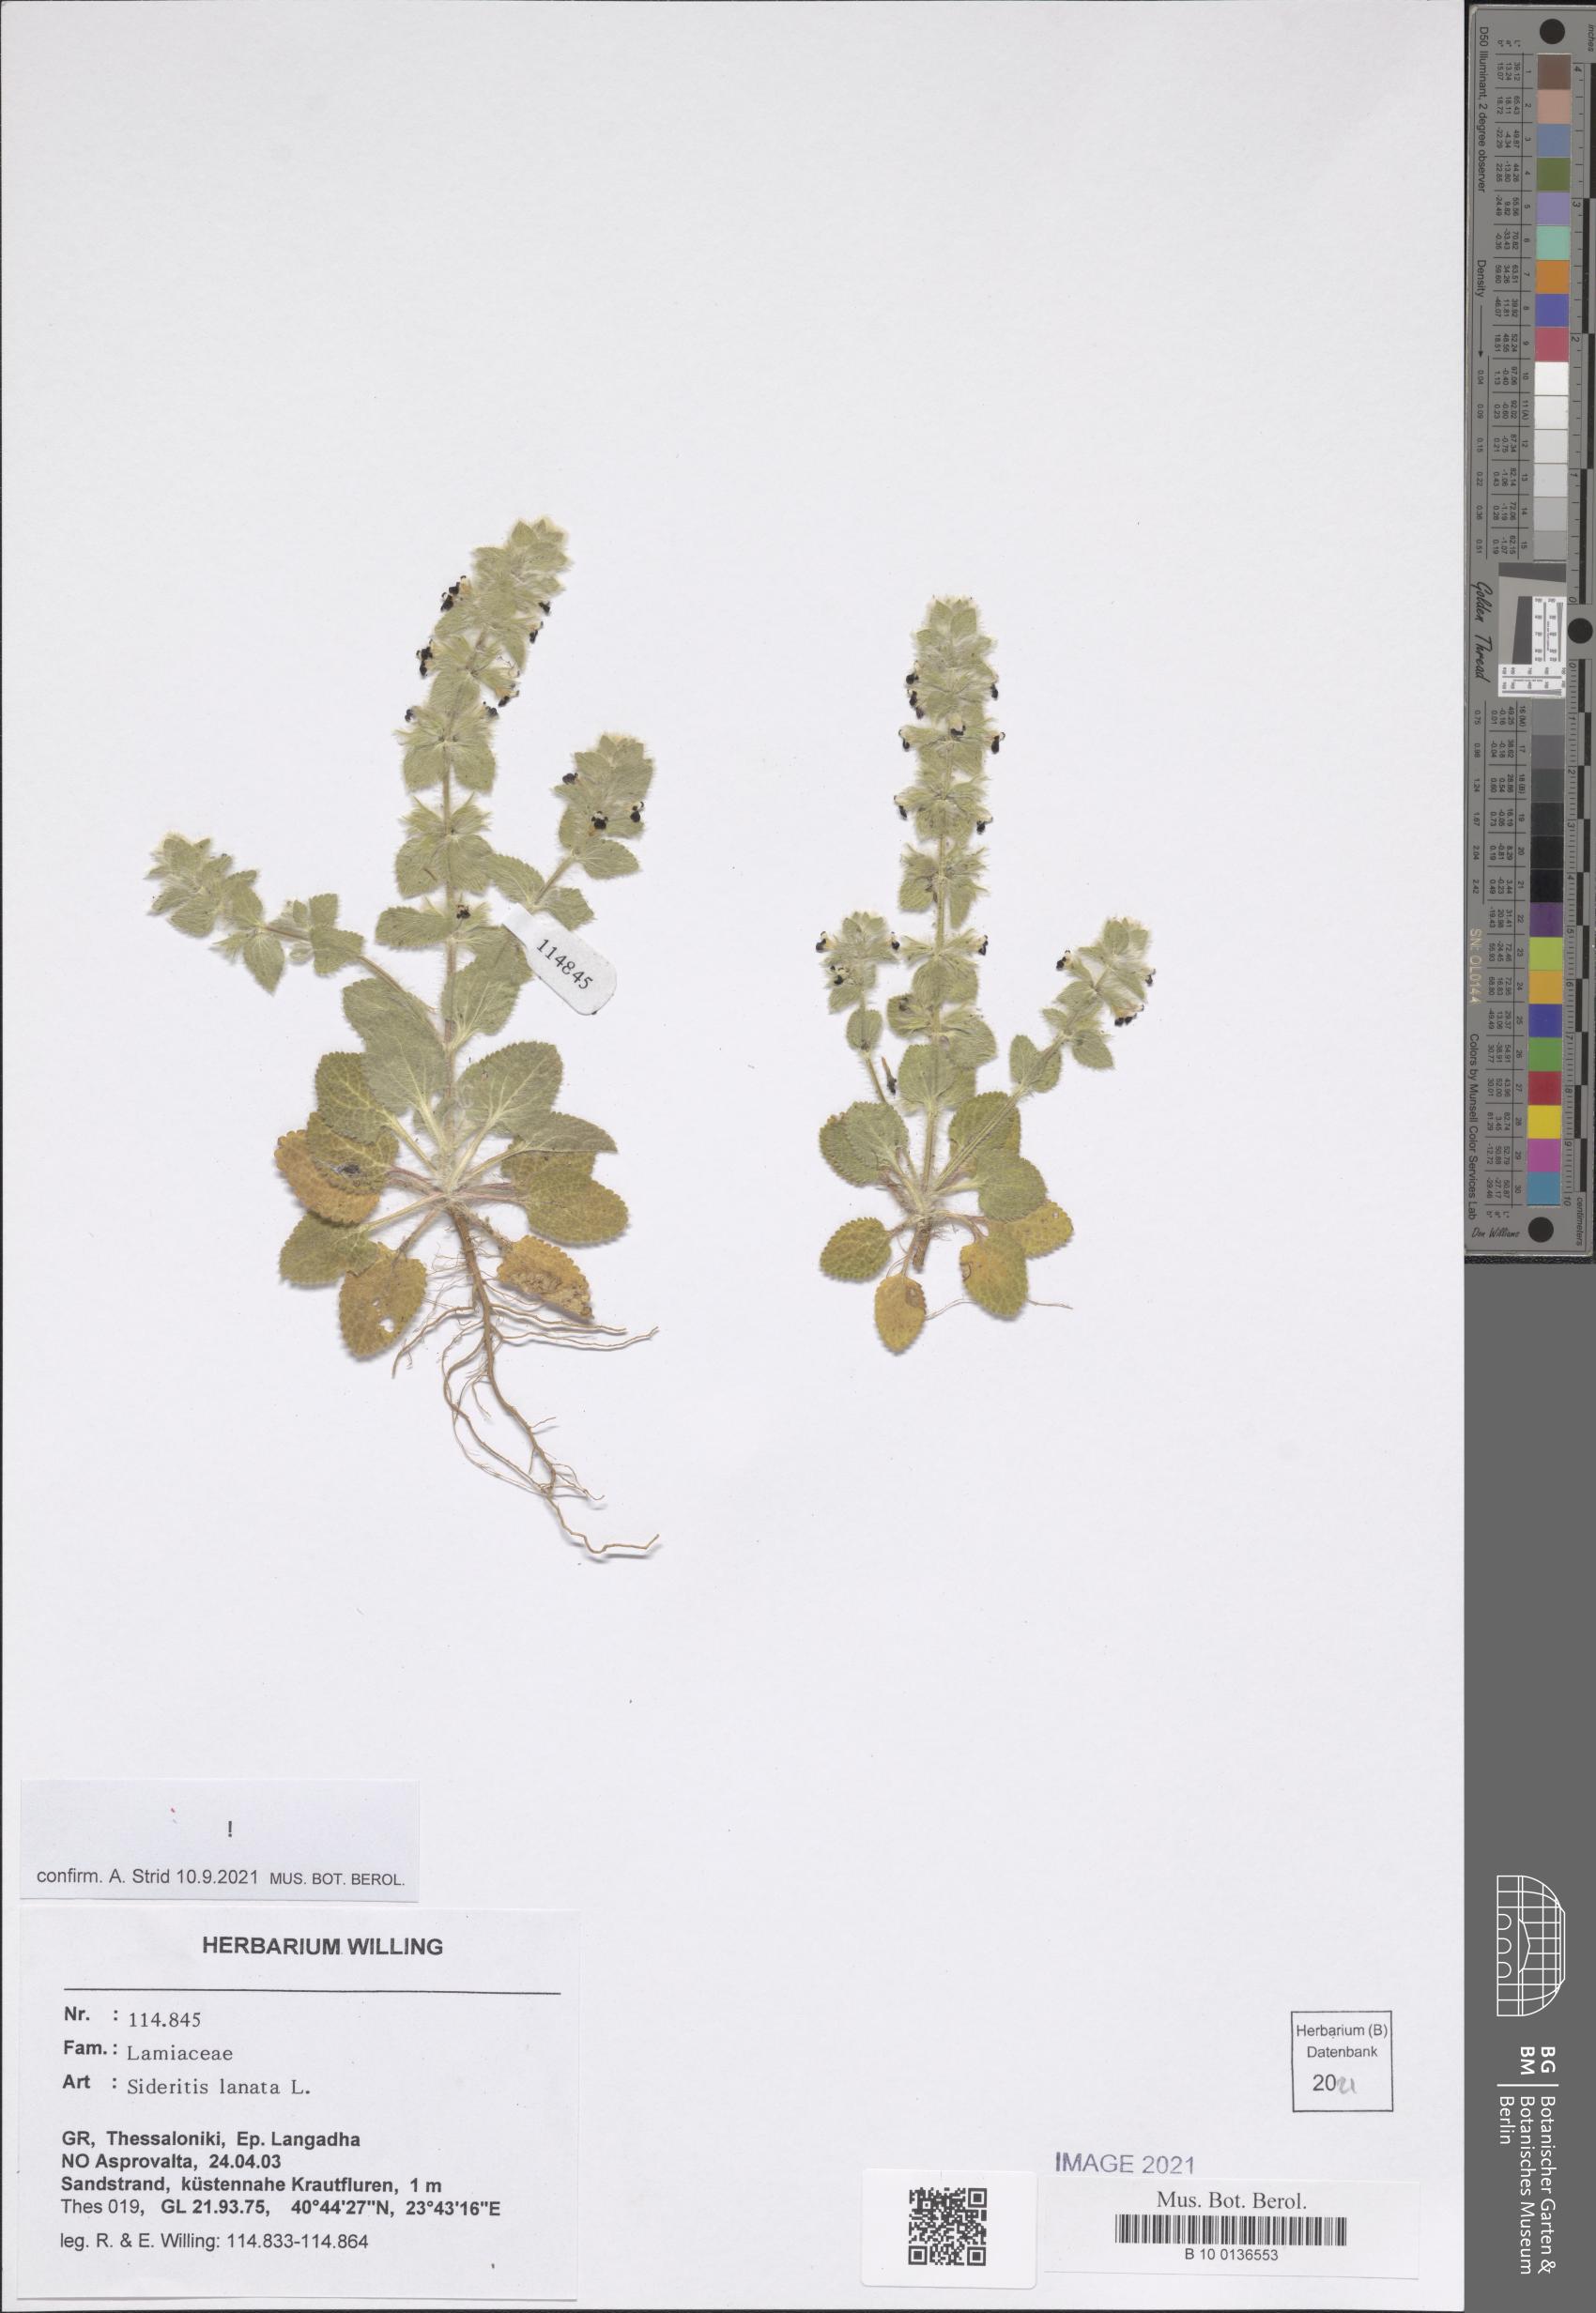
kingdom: Plantae
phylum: Tracheophyta
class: Magnoliopsida
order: Lamiales
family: Lamiaceae
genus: Sideritis
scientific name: Sideritis lanata
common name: Hairy ironwort
